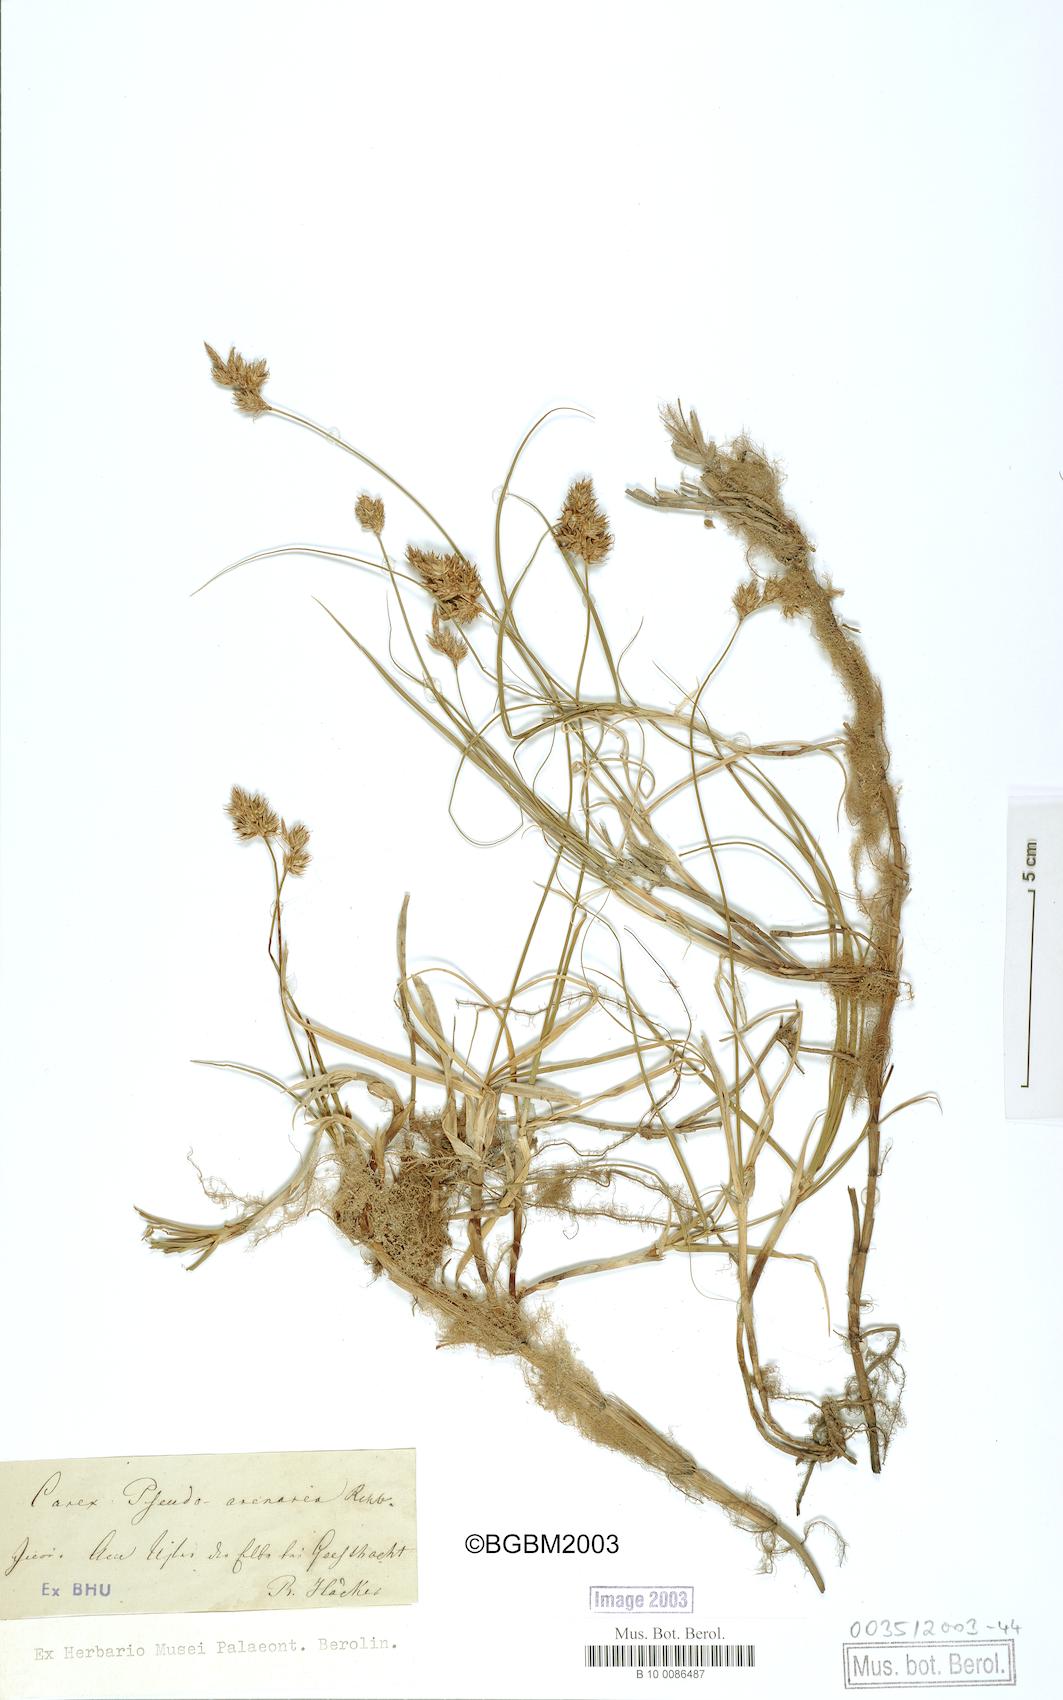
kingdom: Plantae
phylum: Tracheophyta
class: Liliopsida
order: Poales
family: Cyperaceae
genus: Carex
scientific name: Carex pseudobrizoides
